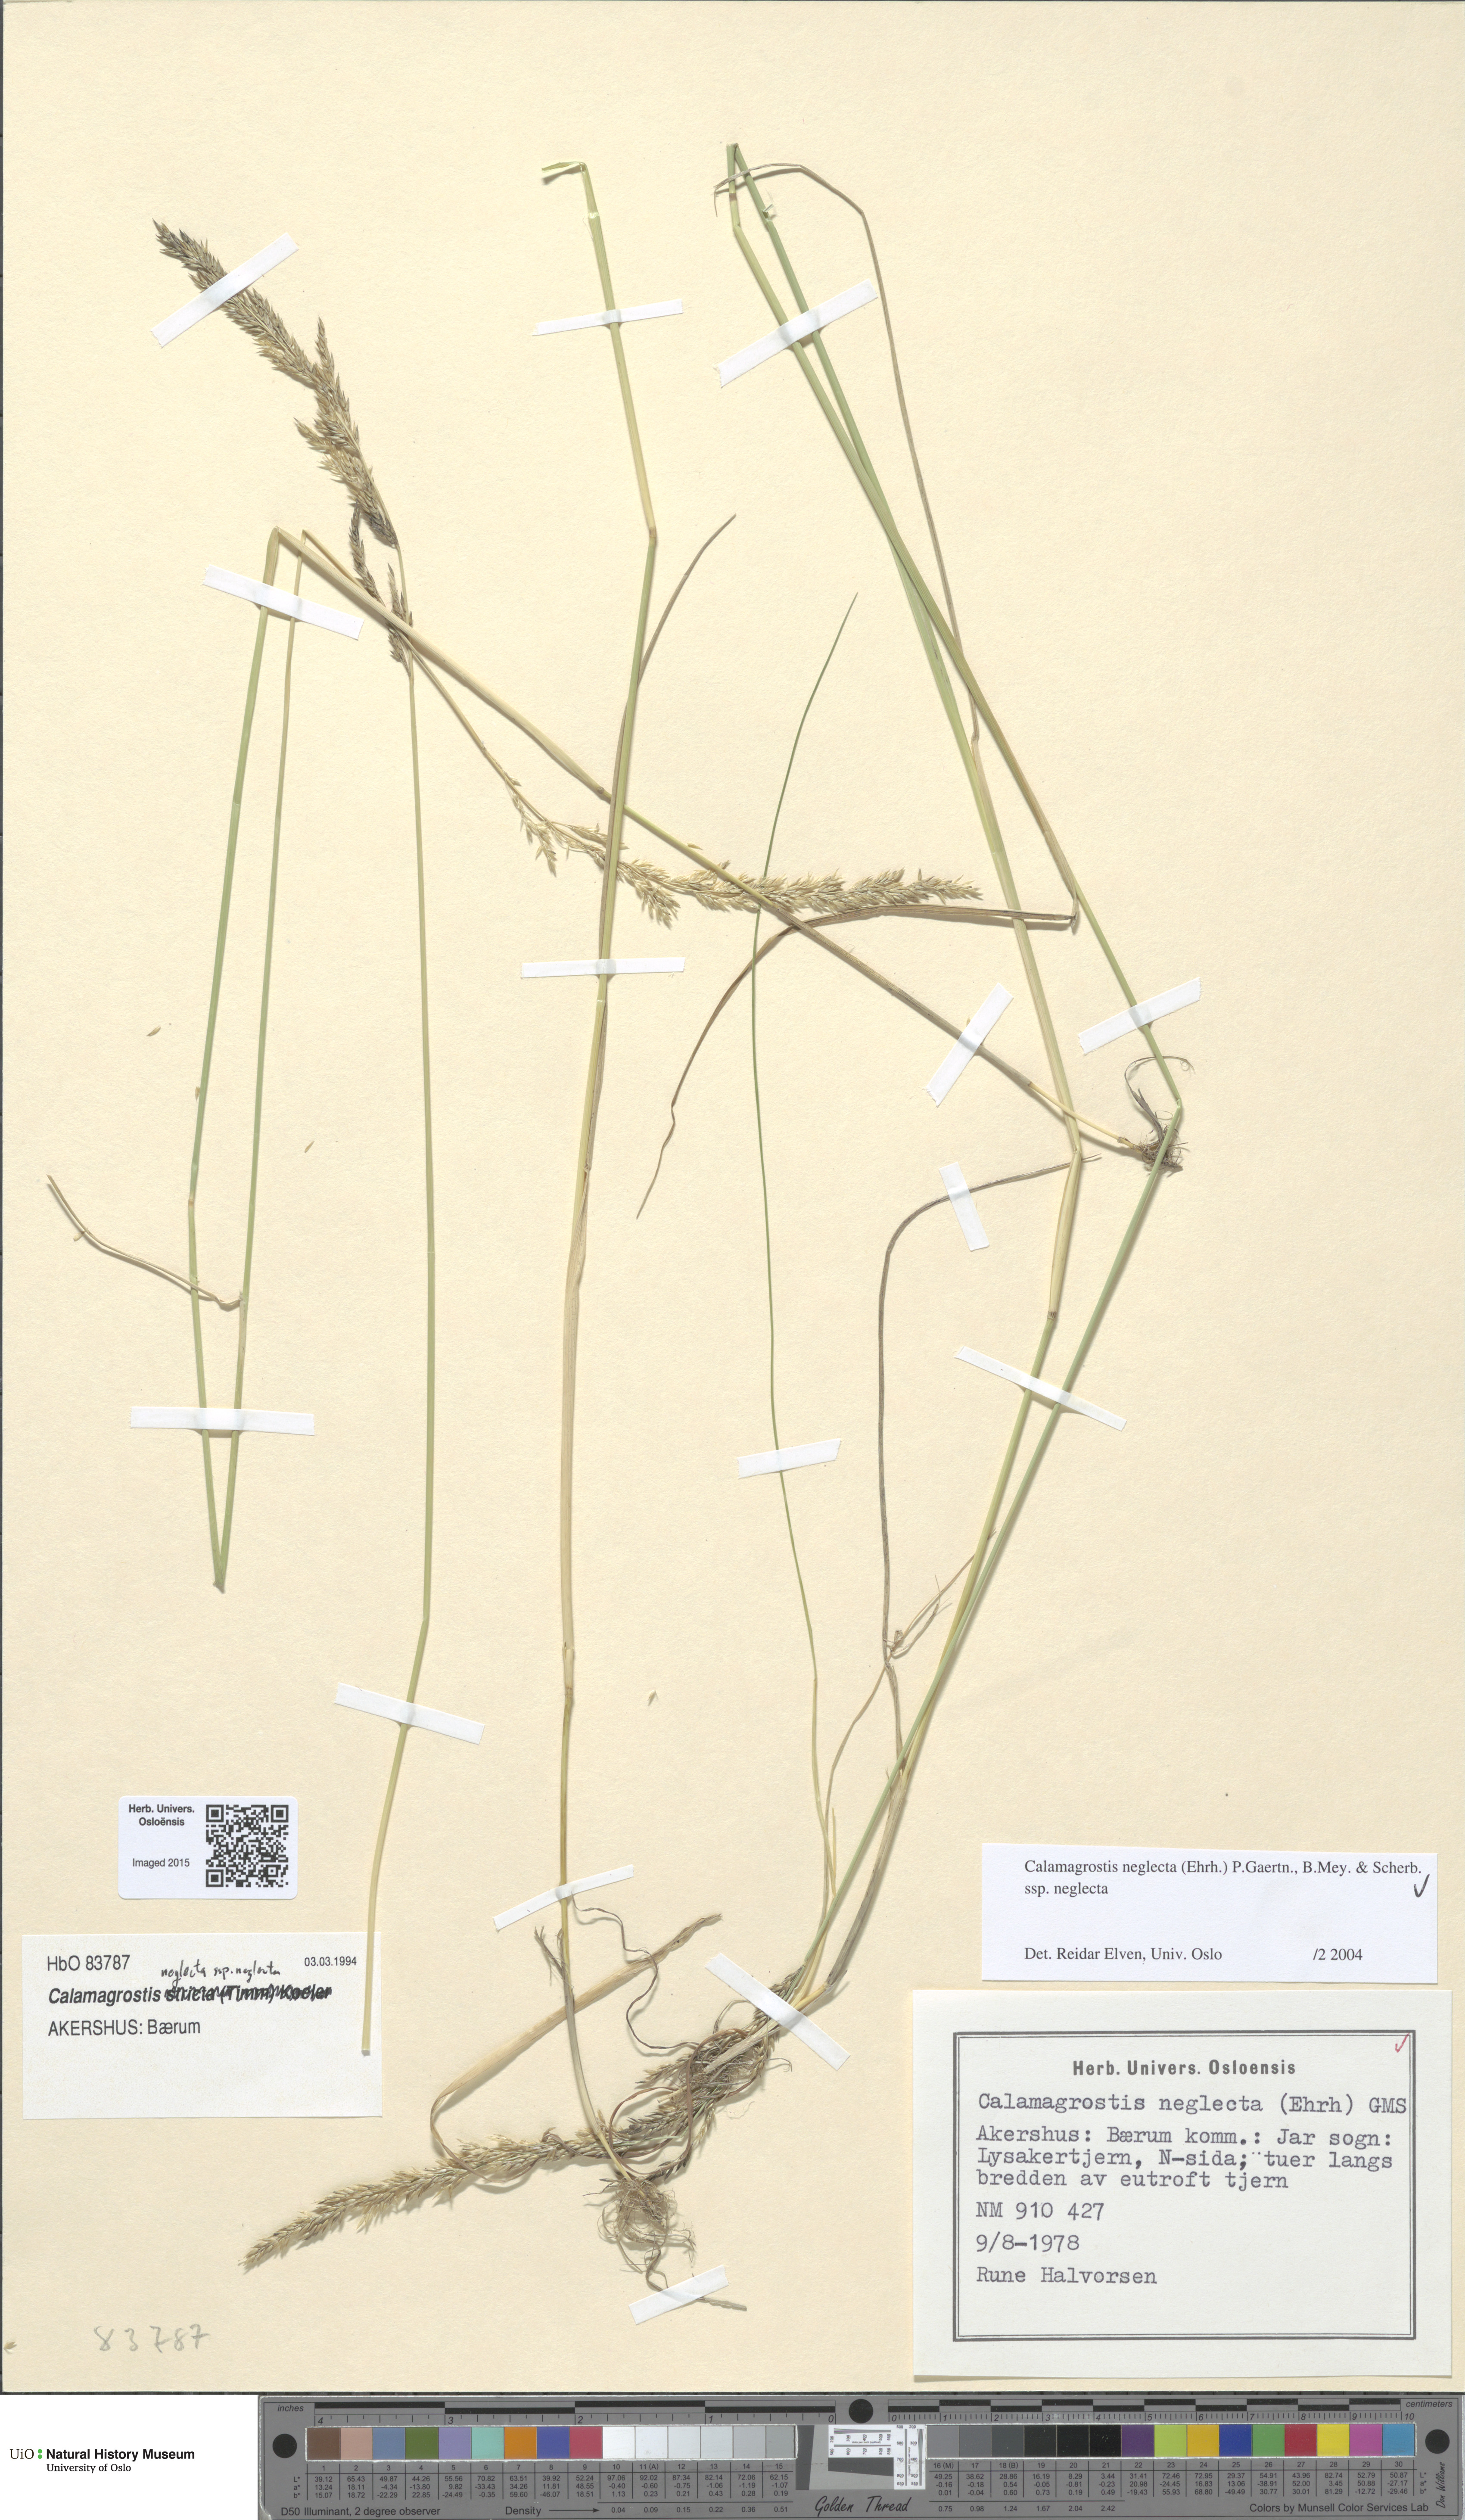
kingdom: Plantae
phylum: Tracheophyta
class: Liliopsida
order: Poales
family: Poaceae
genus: Achnatherum
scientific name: Achnatherum calamagrostis
